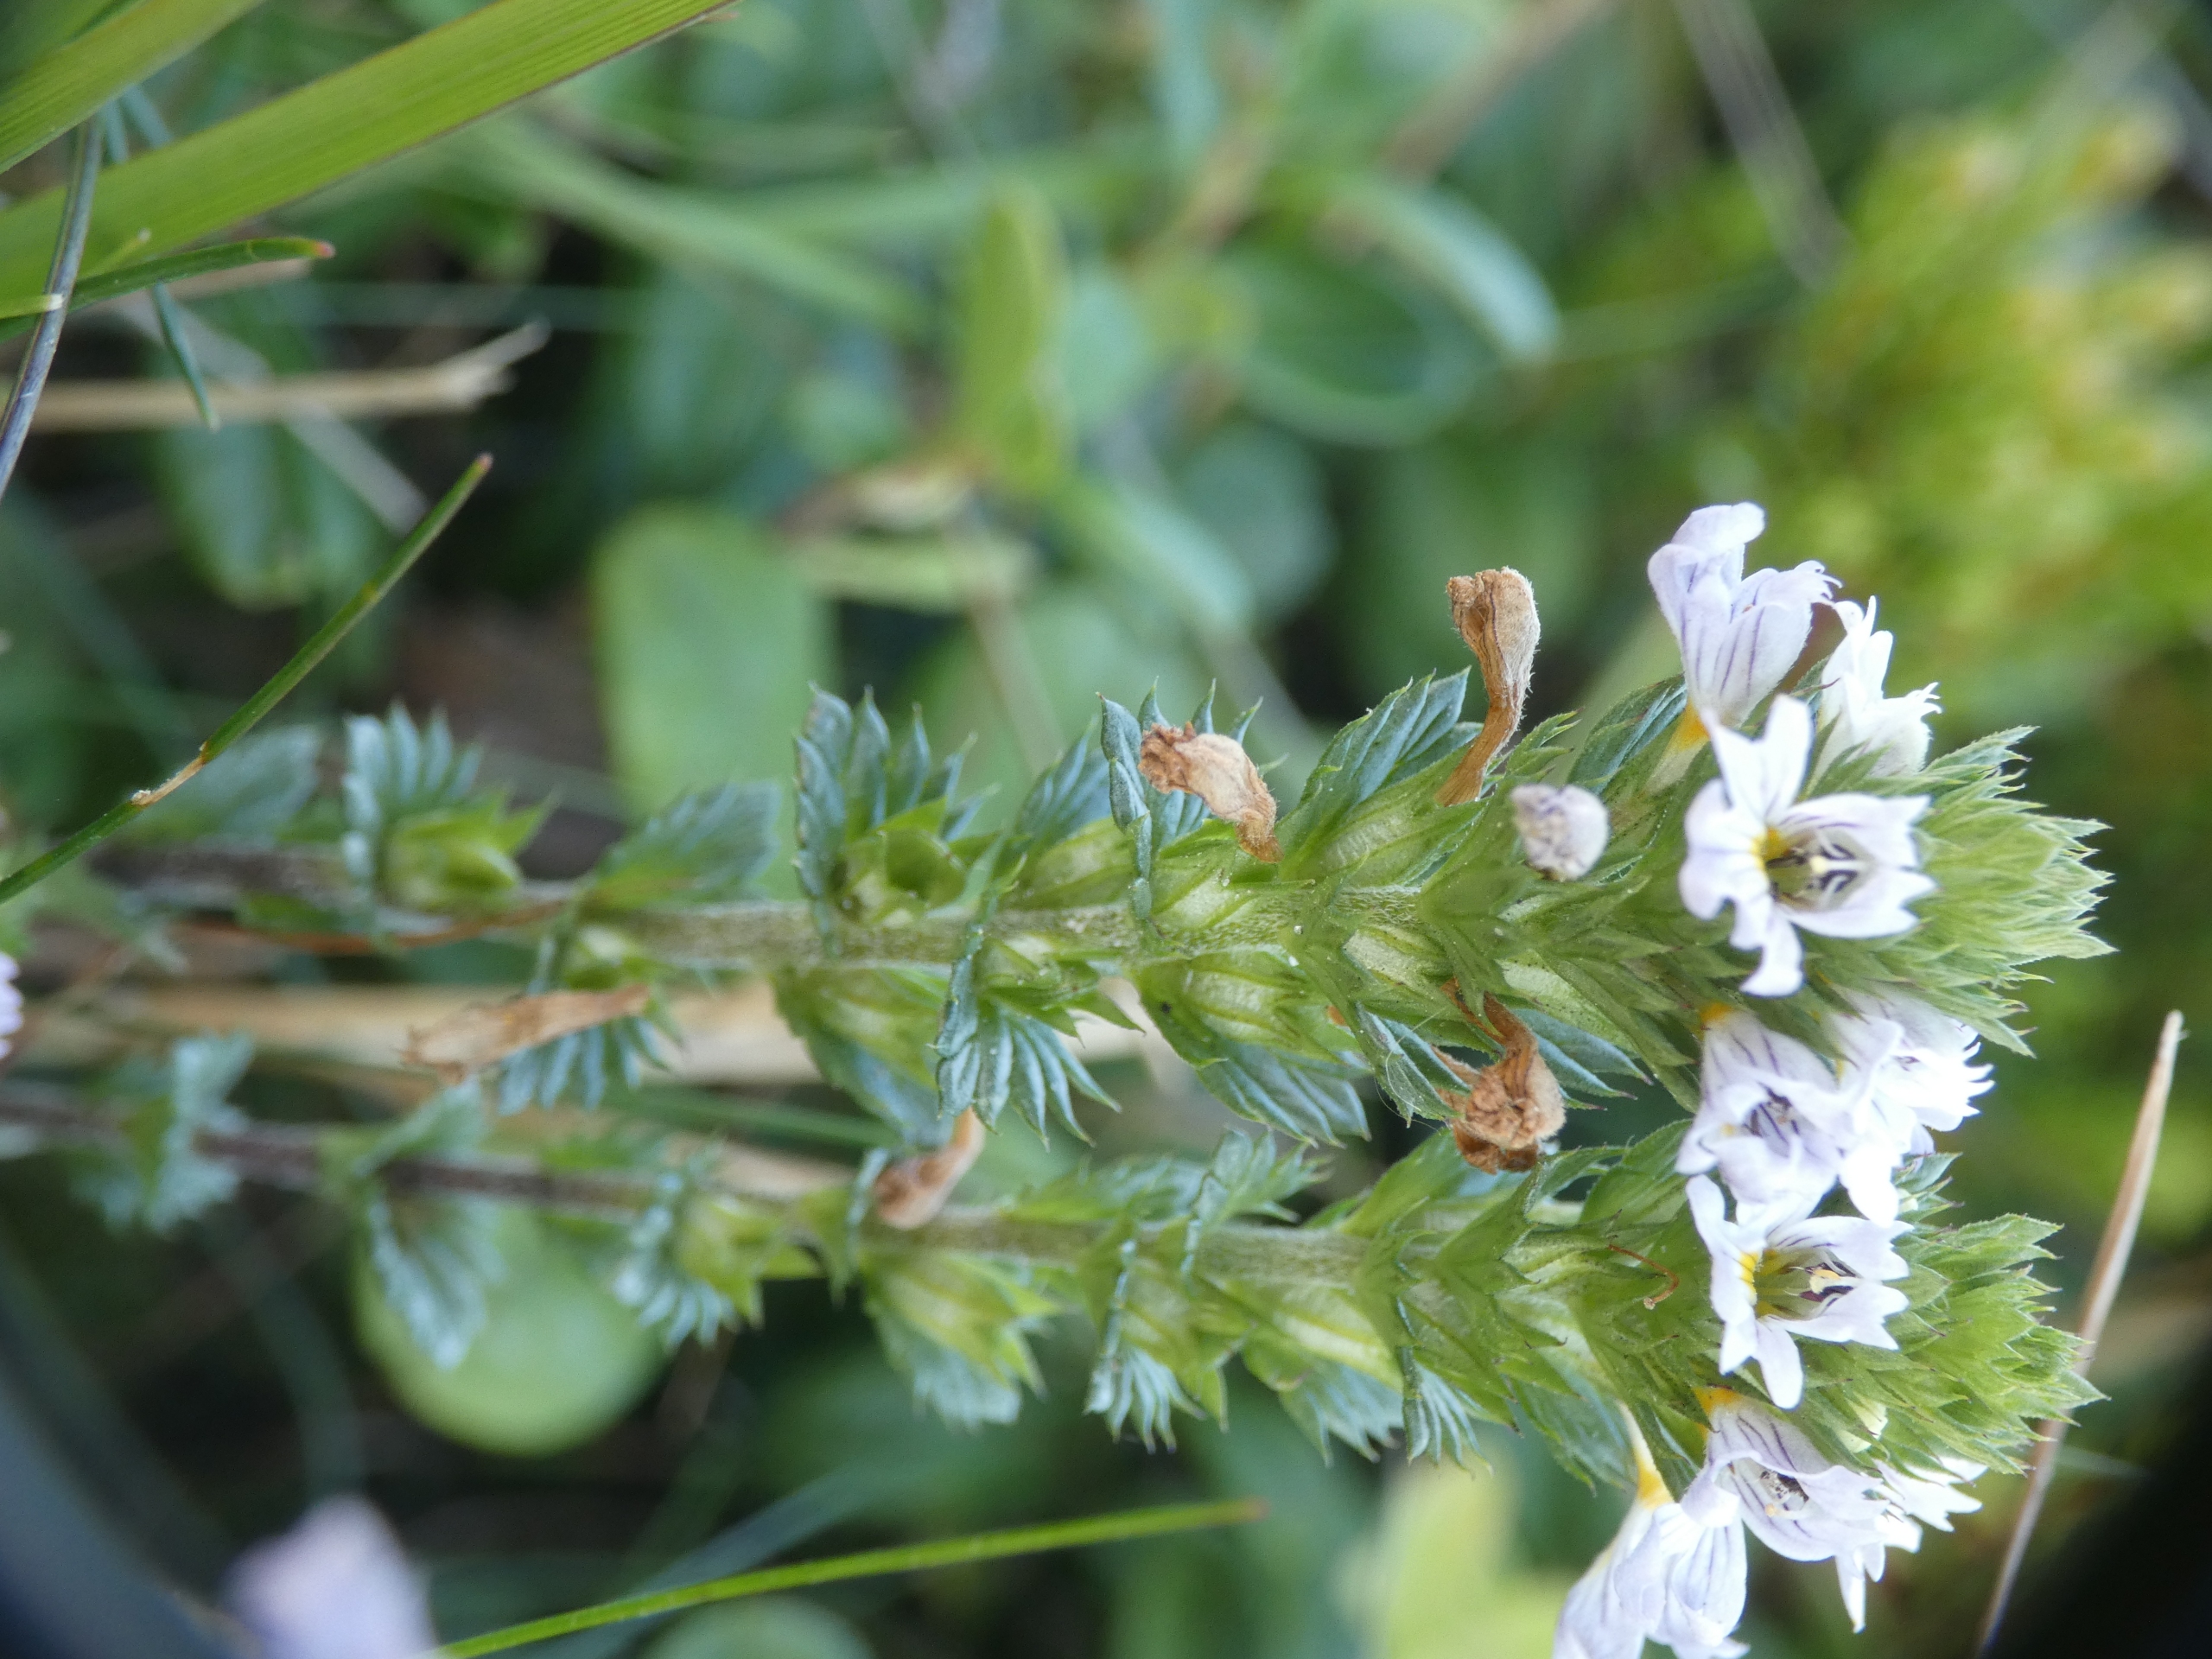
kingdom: Plantae
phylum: Tracheophyta
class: Magnoliopsida
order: Lamiales
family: Orobanchaceae
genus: Euphrasia
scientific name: Euphrasia stricta
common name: Spids øjentrøst
